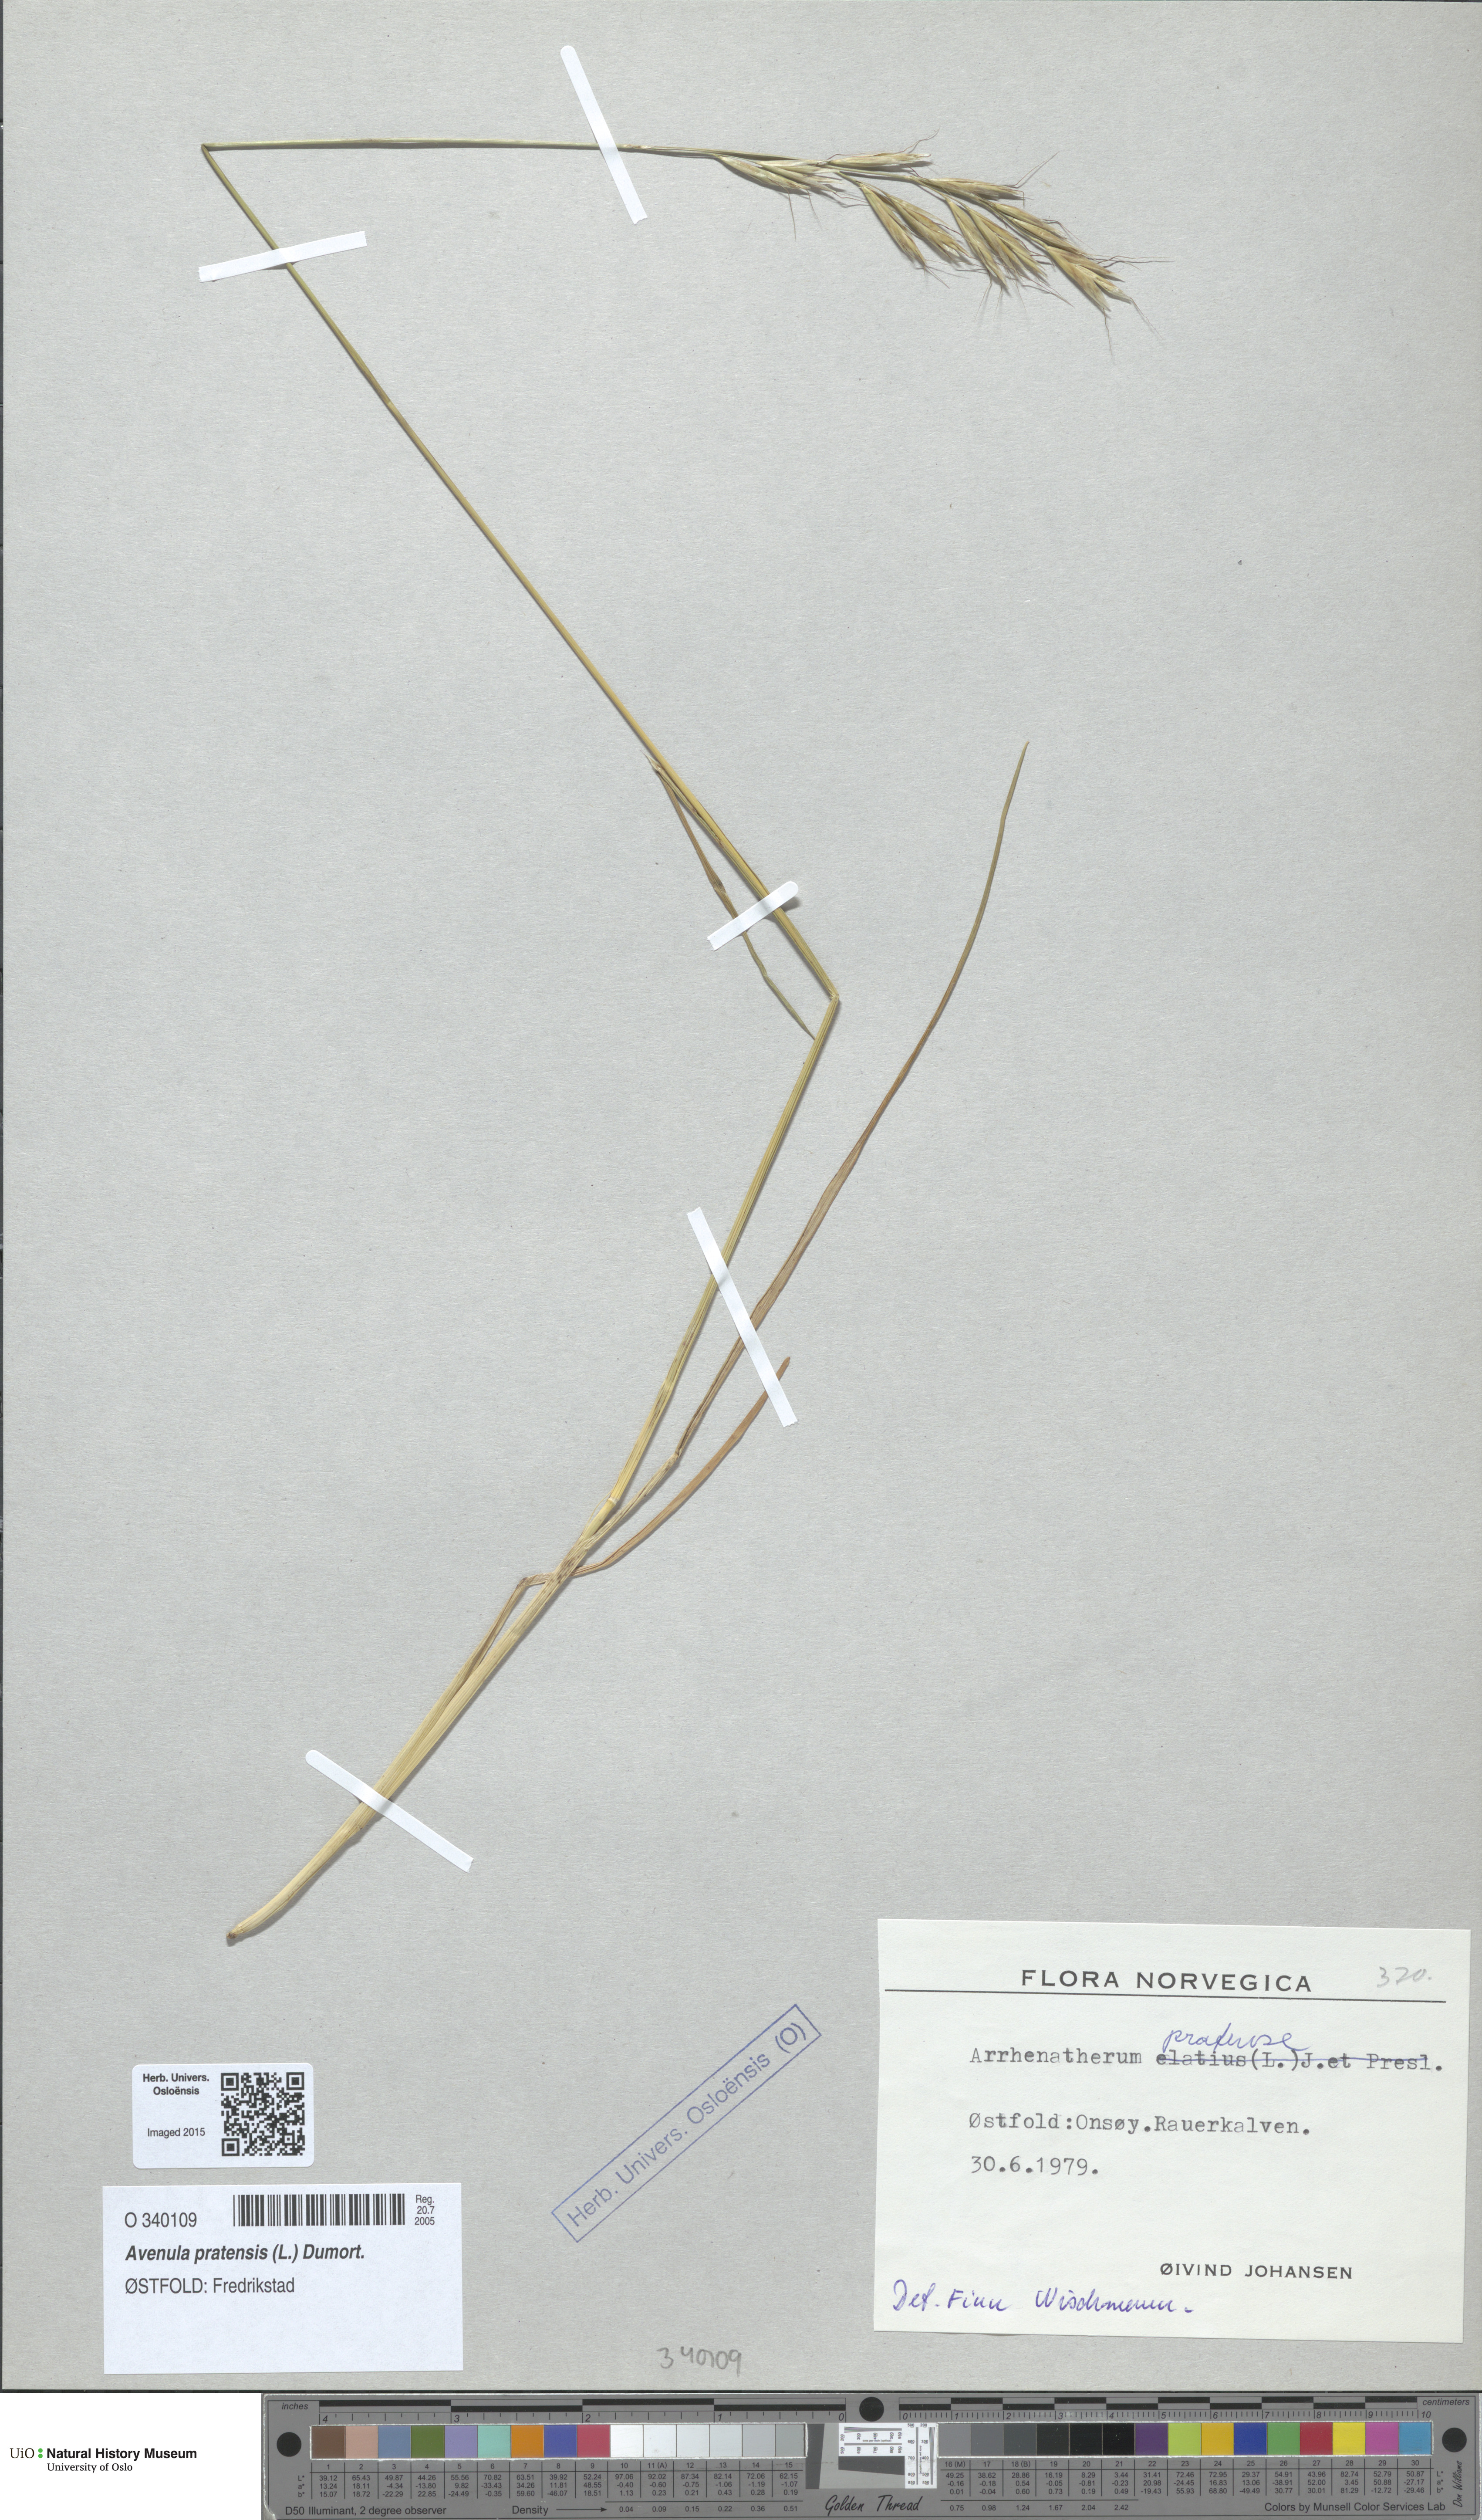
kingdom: Plantae
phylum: Tracheophyta
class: Liliopsida
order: Poales
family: Poaceae
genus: Helictochloa
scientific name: Helictochloa pratensis
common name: Meadow oat grass
